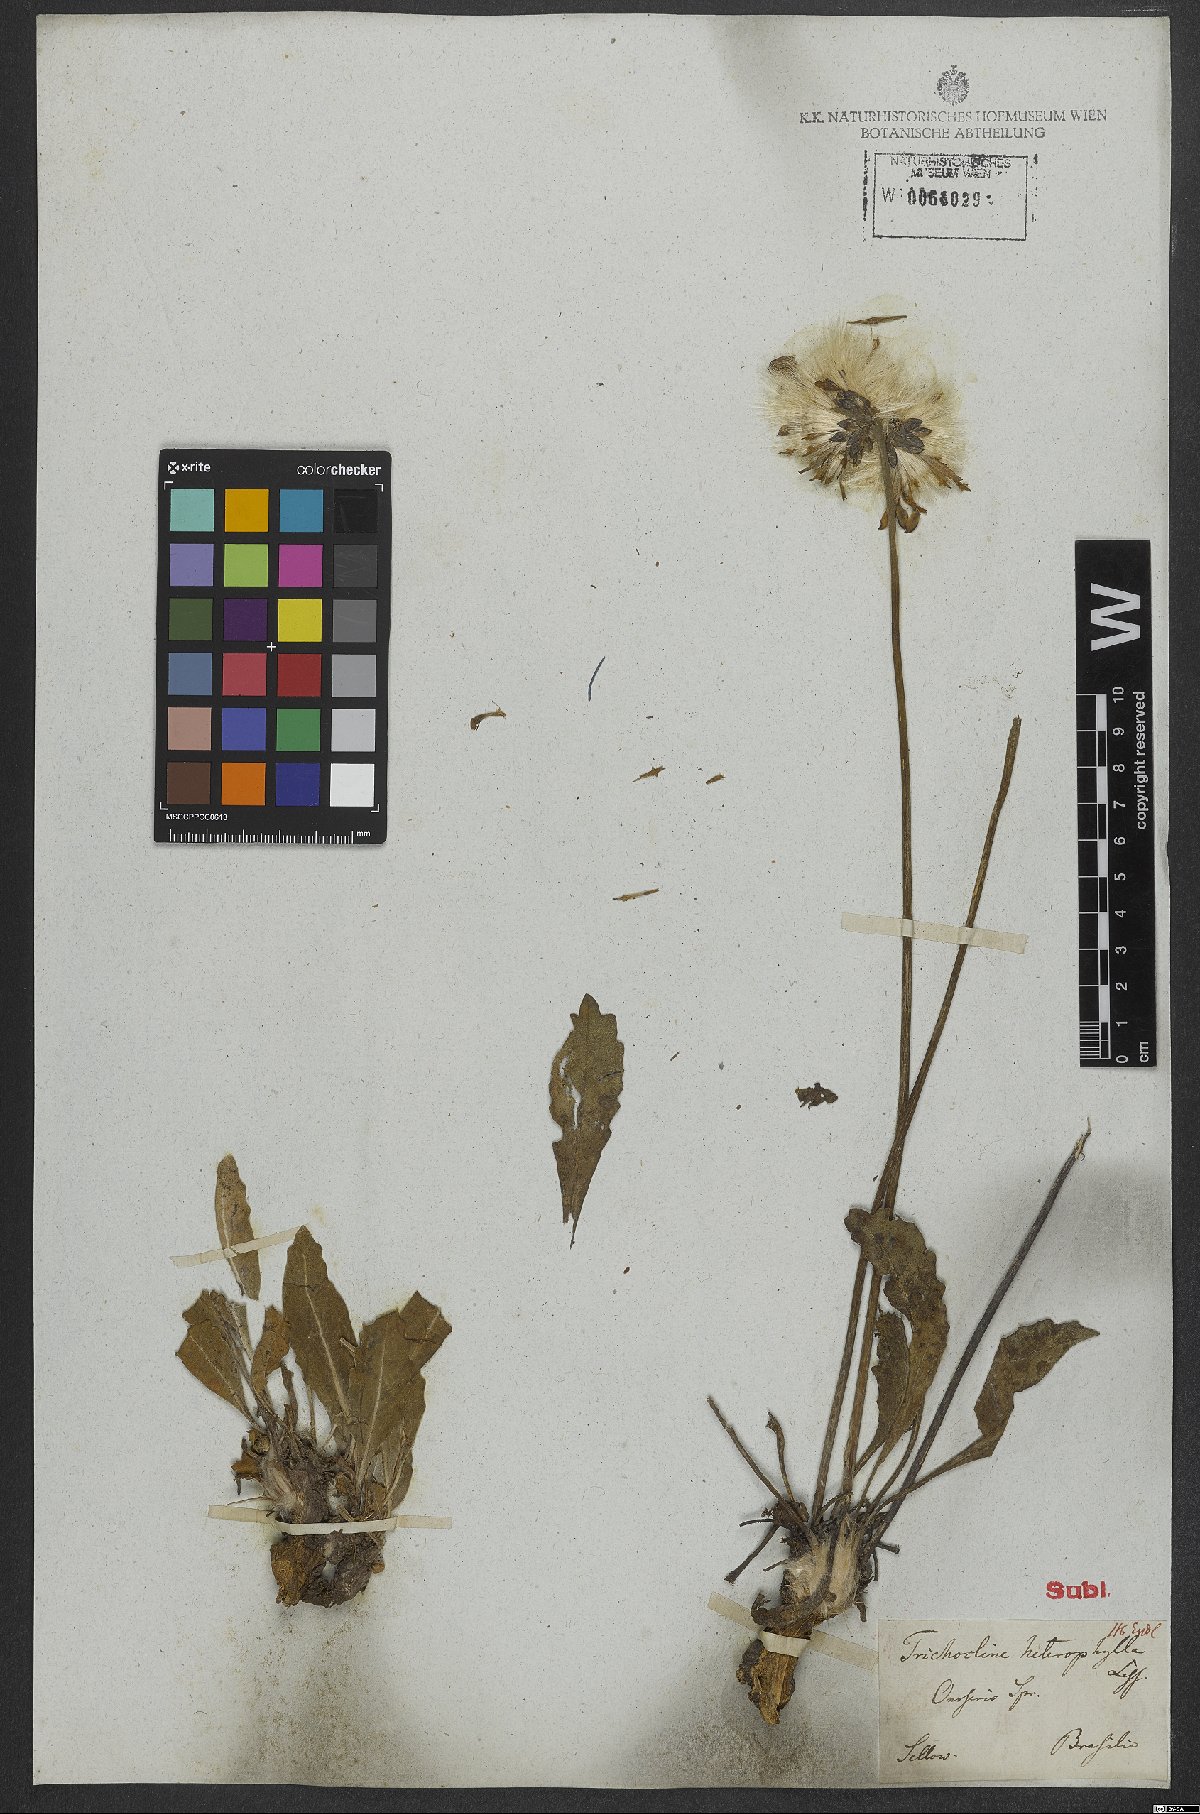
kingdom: Plantae
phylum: Tracheophyta
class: Magnoliopsida
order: Asterales
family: Asteraceae
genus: Criscia
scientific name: Criscia stricta
